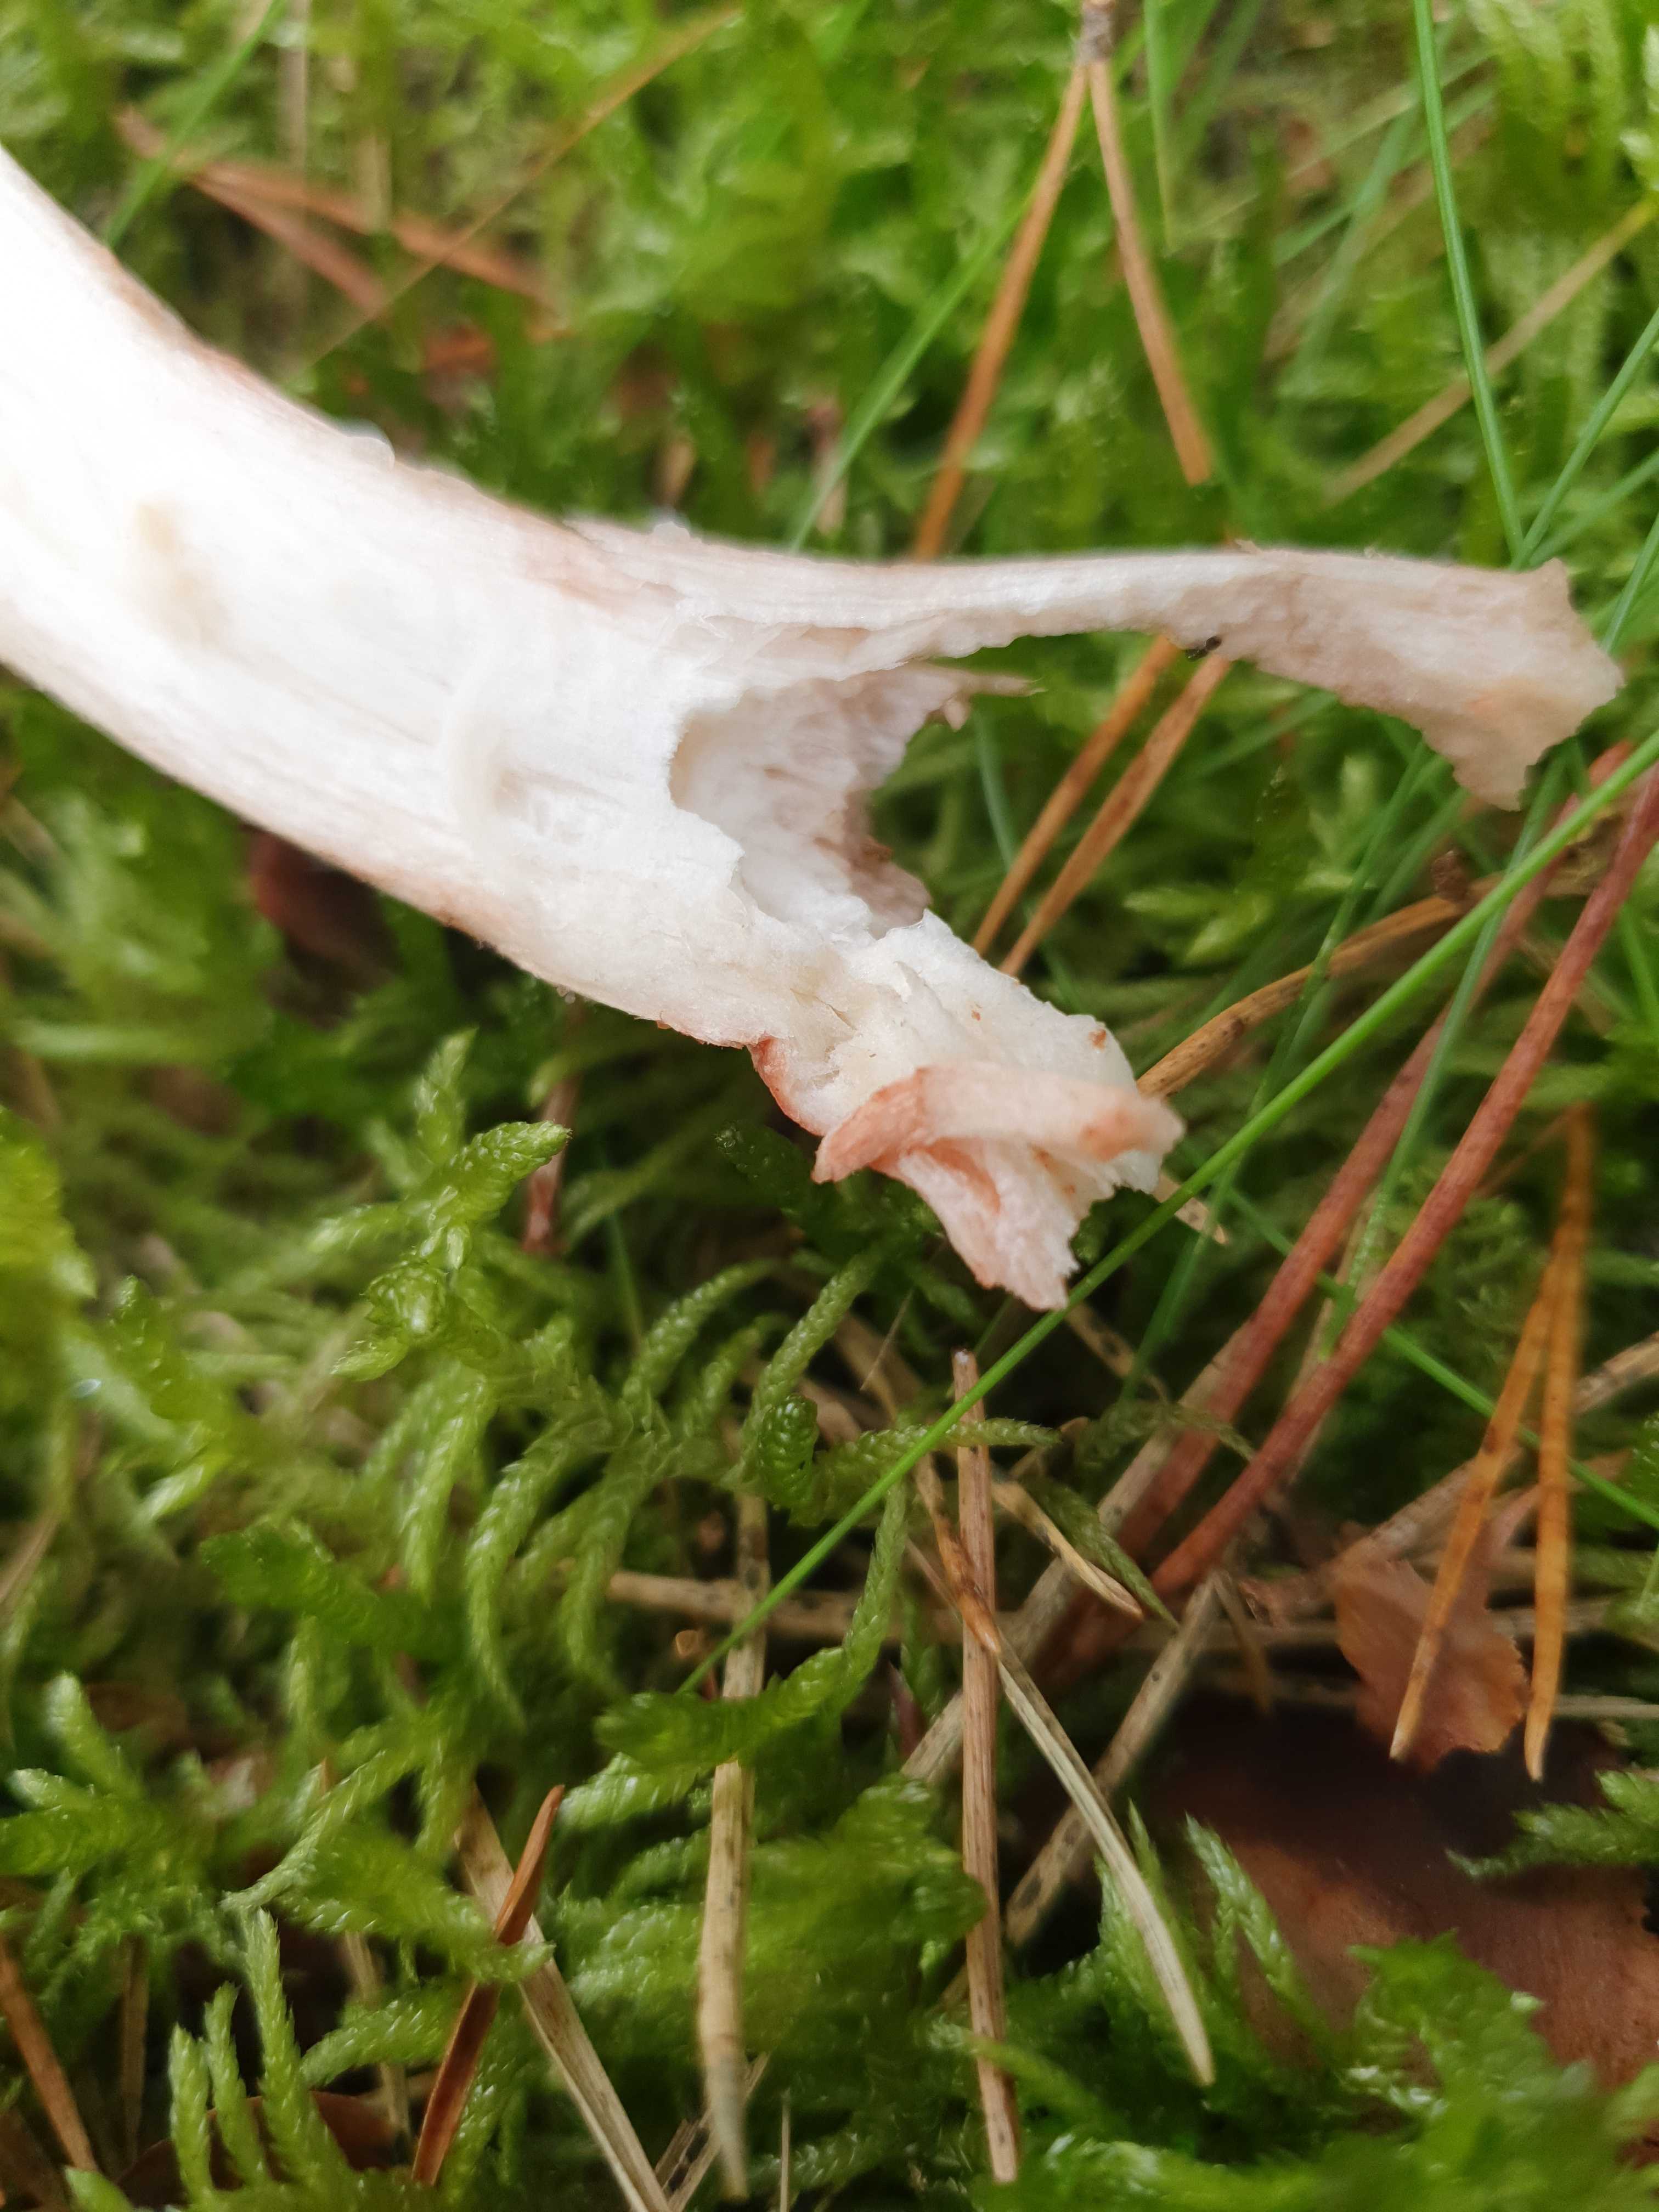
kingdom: Fungi
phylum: Basidiomycota
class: Agaricomycetes
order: Agaricales
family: Amanitaceae
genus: Amanita
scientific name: Amanita rubescens
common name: rødmende fluesvamp
